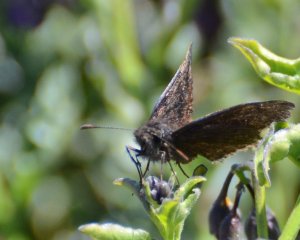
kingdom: Animalia
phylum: Arthropoda
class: Insecta
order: Lepidoptera
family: Hesperiidae
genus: Erynnis
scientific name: Erynnis
